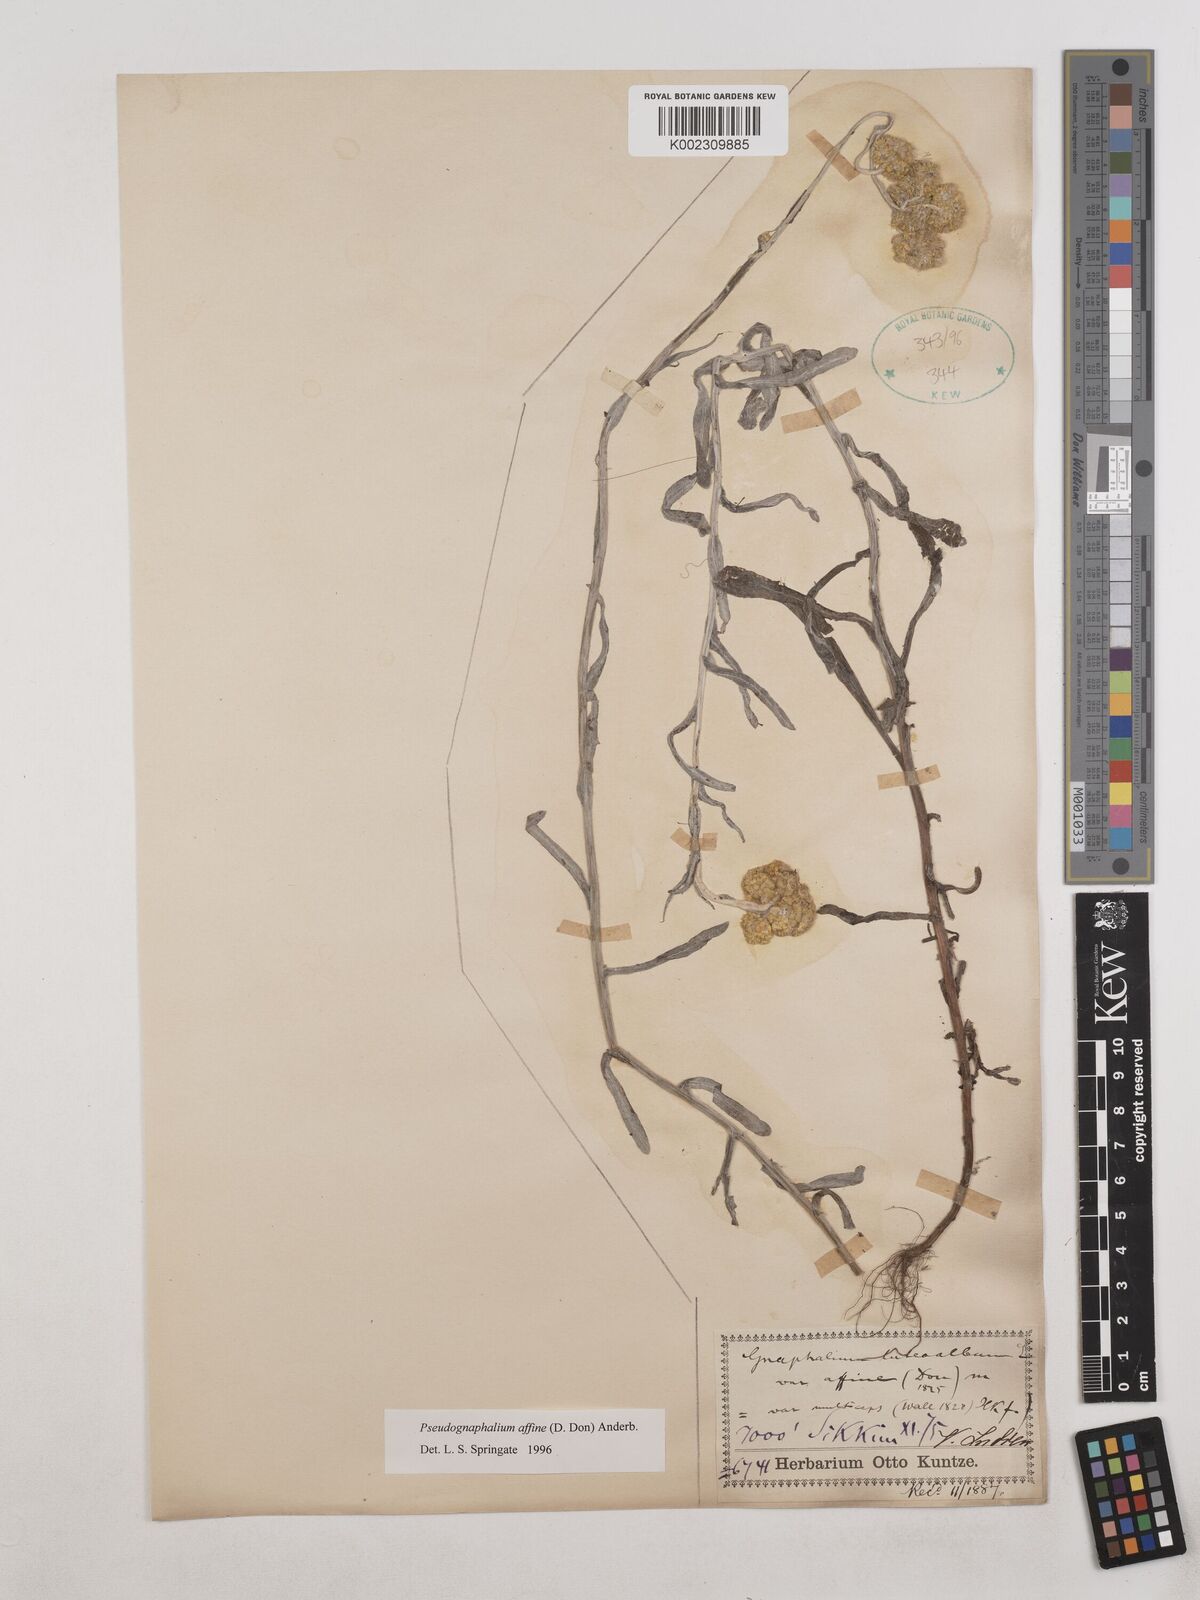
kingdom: Plantae
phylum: Tracheophyta
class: Magnoliopsida
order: Asterales
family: Asteraceae
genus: Helichrysum
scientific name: Helichrysum luteoalbum
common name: Daisy
